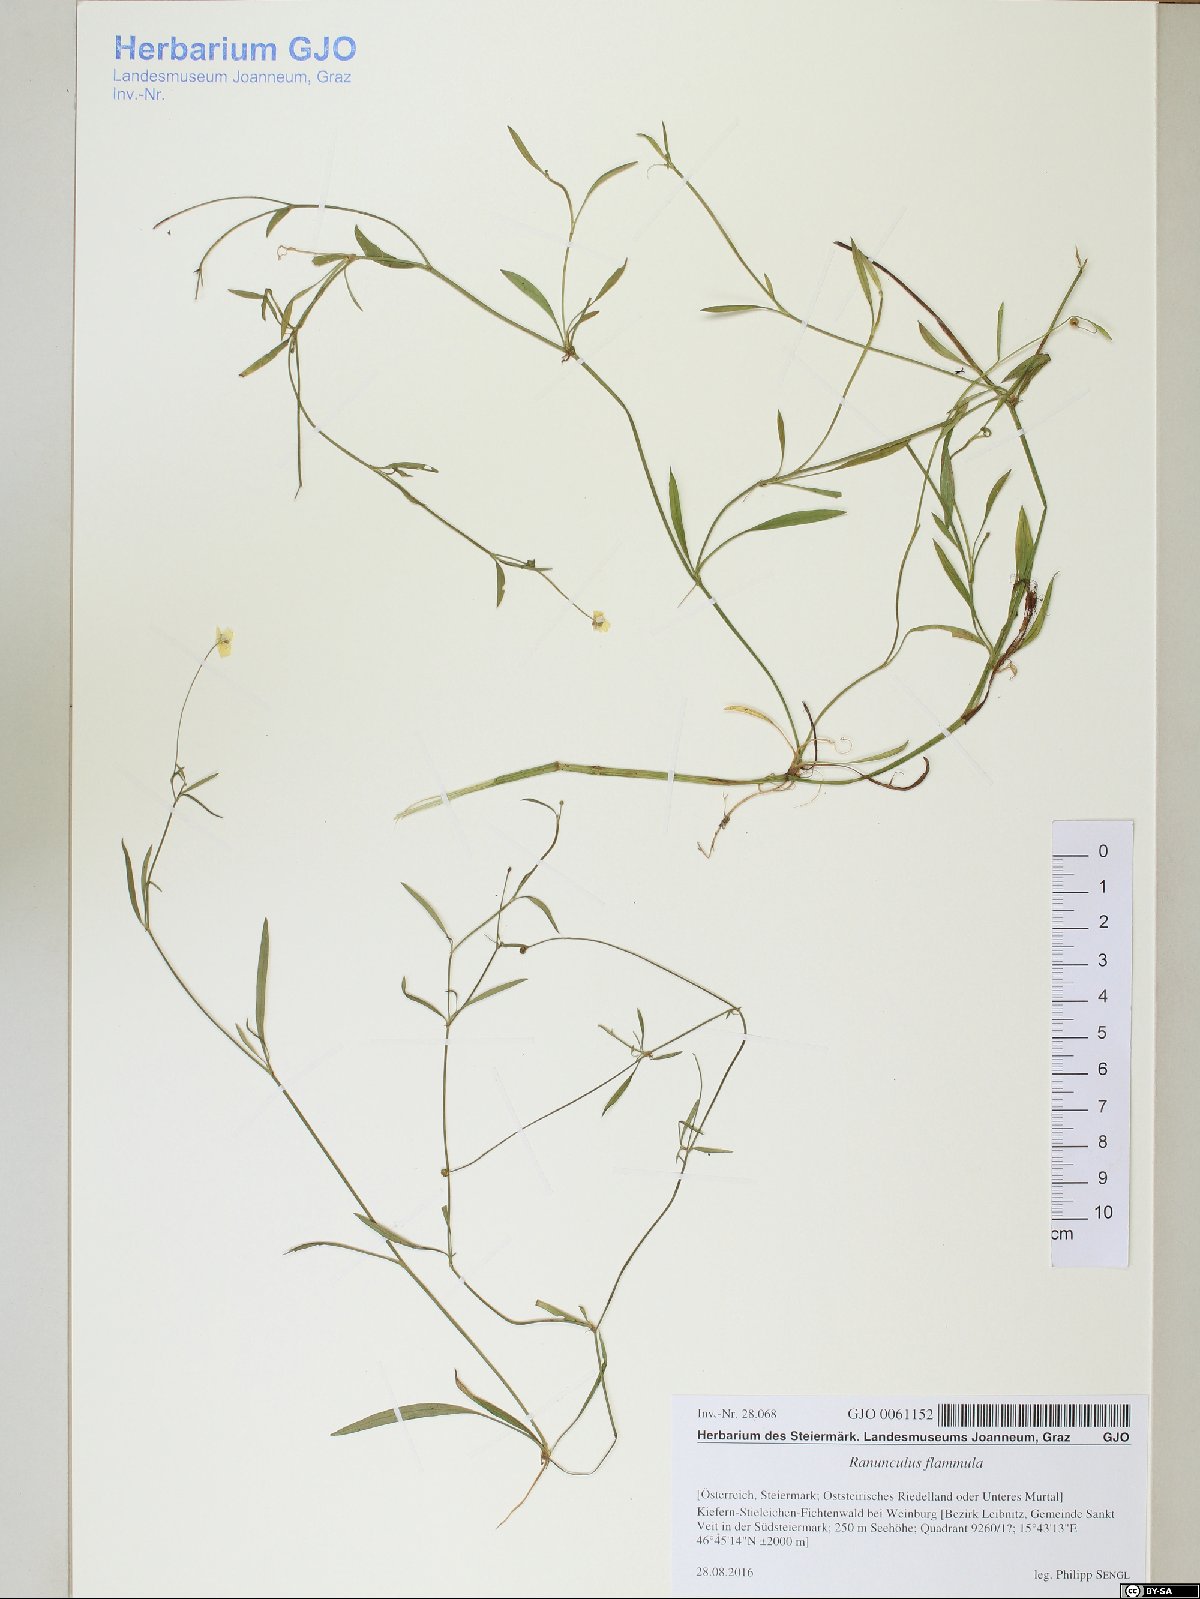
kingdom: Plantae
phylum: Tracheophyta
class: Magnoliopsida
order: Ranunculales
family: Ranunculaceae
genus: Ranunculus
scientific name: Ranunculus flammula
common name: Lesser spearwort
